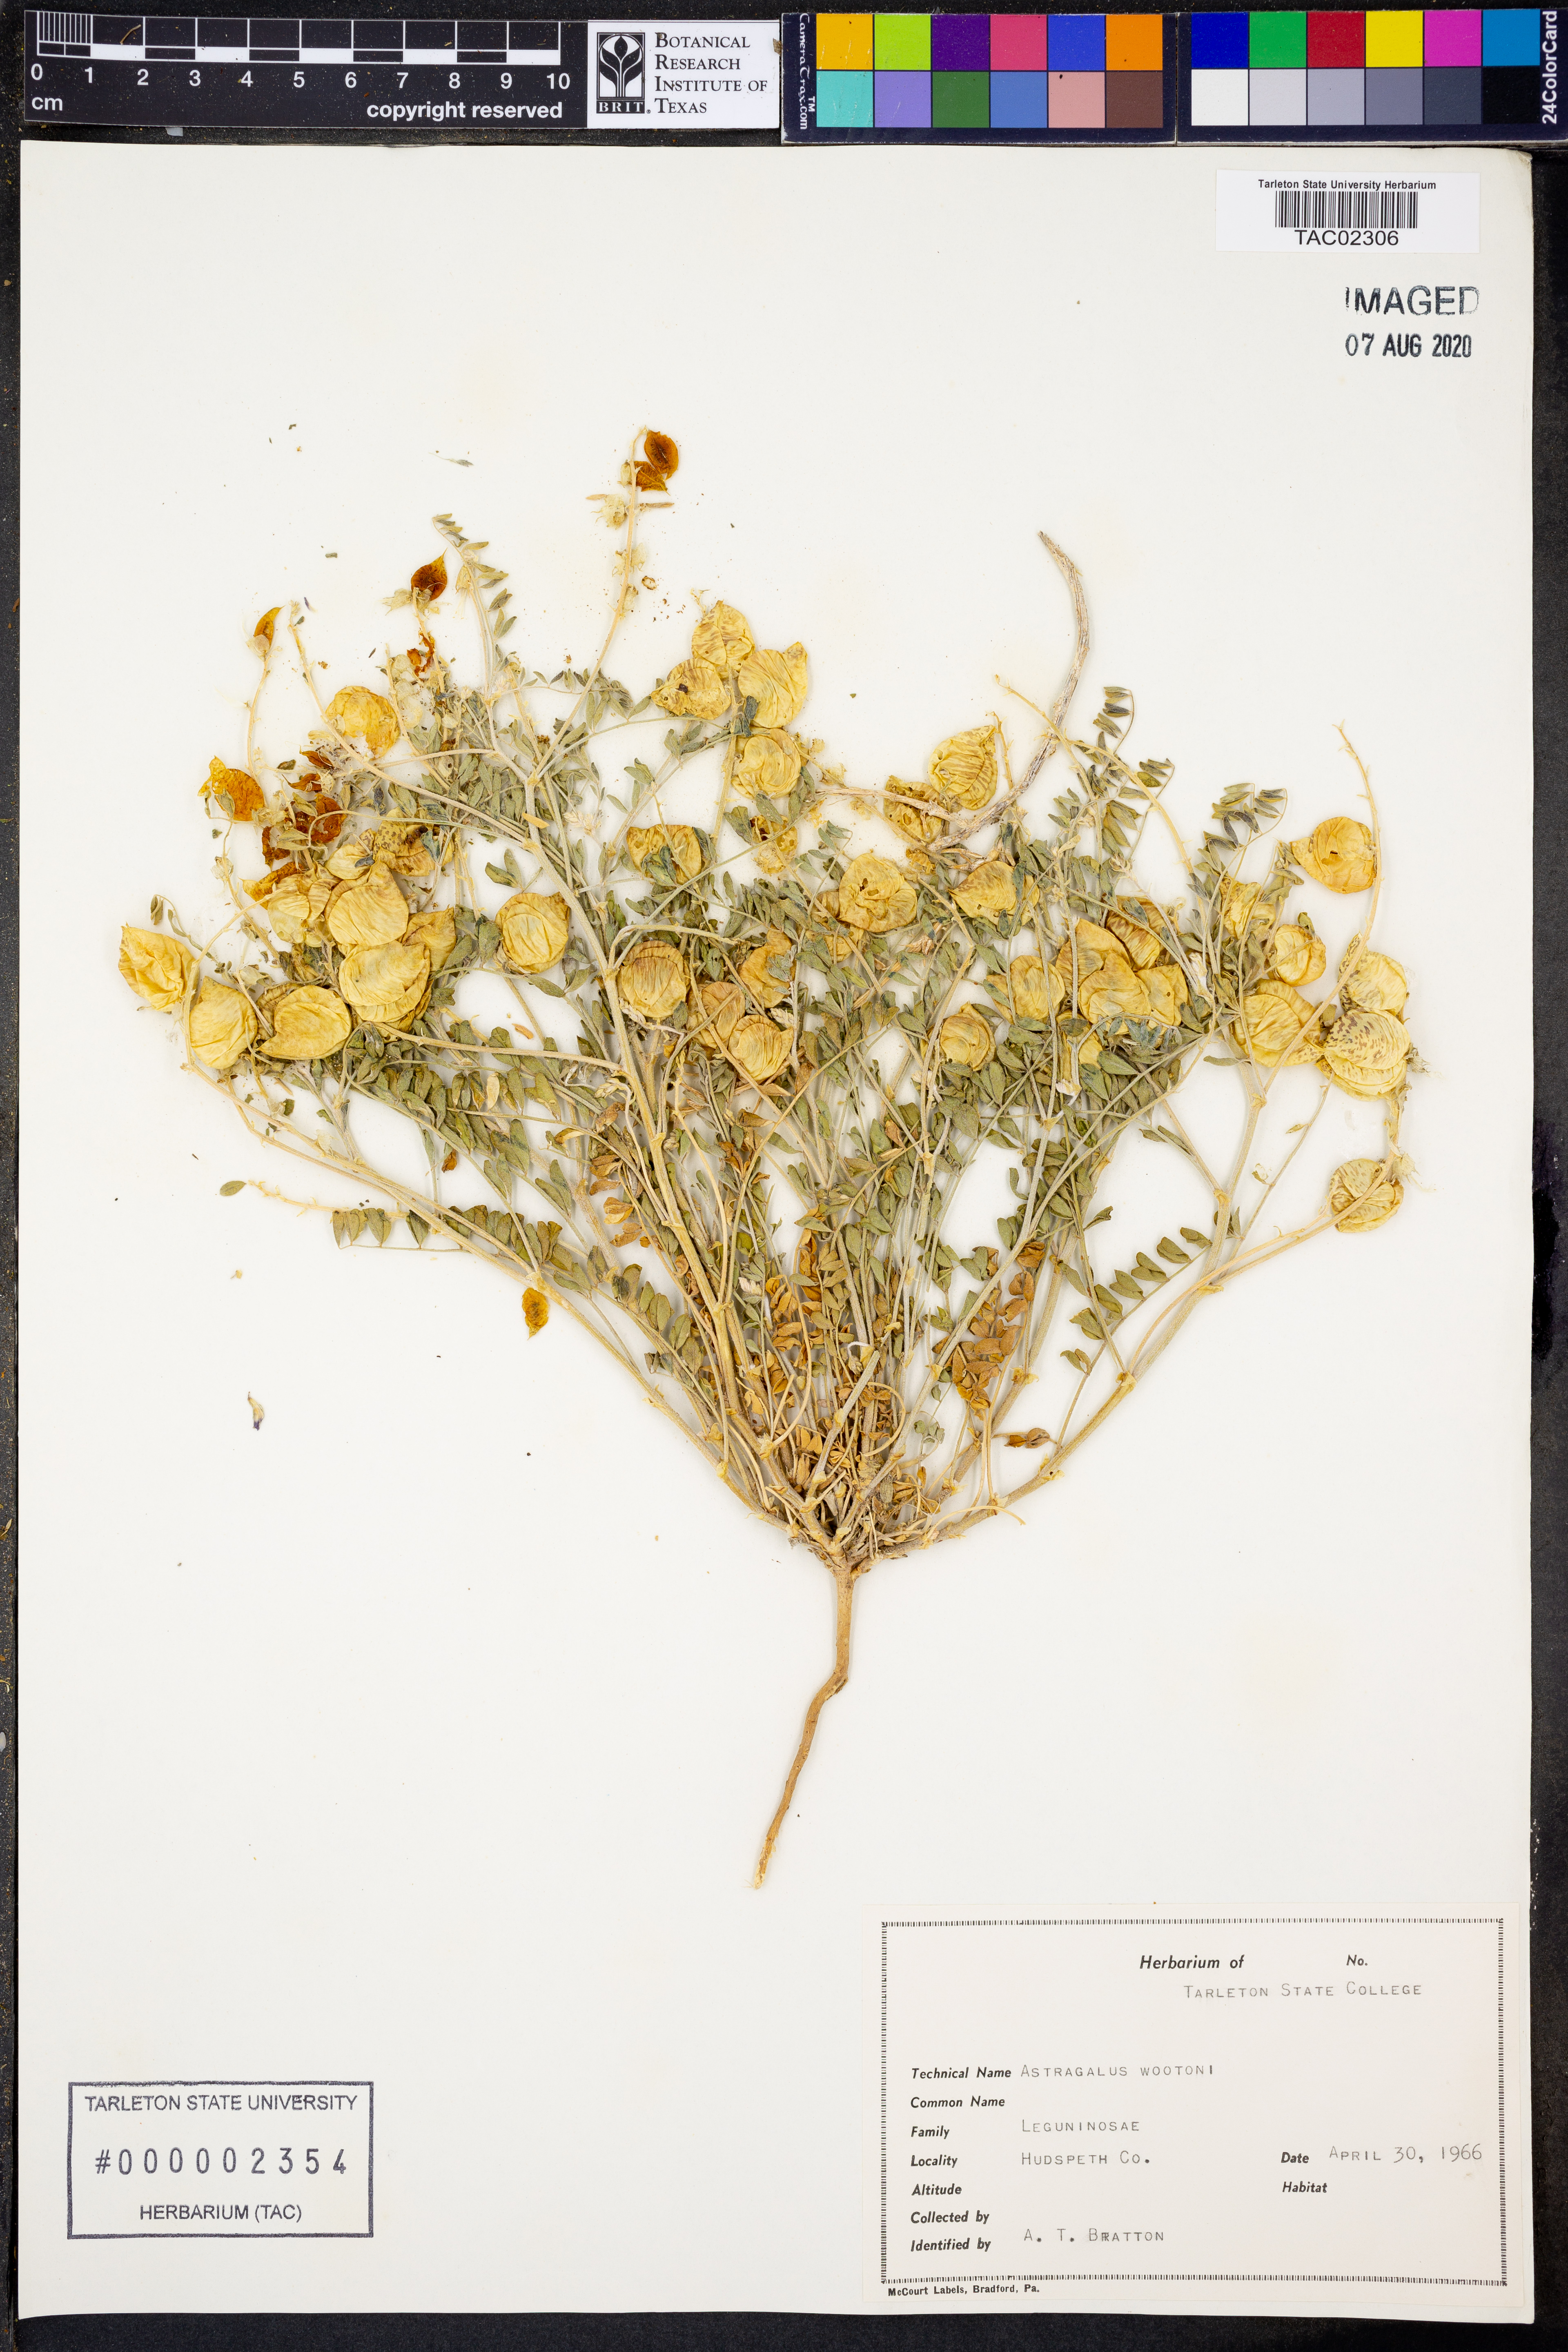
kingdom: Plantae
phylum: Tracheophyta
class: Magnoliopsida
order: Fabales
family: Fabaceae
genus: Astragalus
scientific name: Astragalus wootonii
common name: Wooton's milk-vetch
